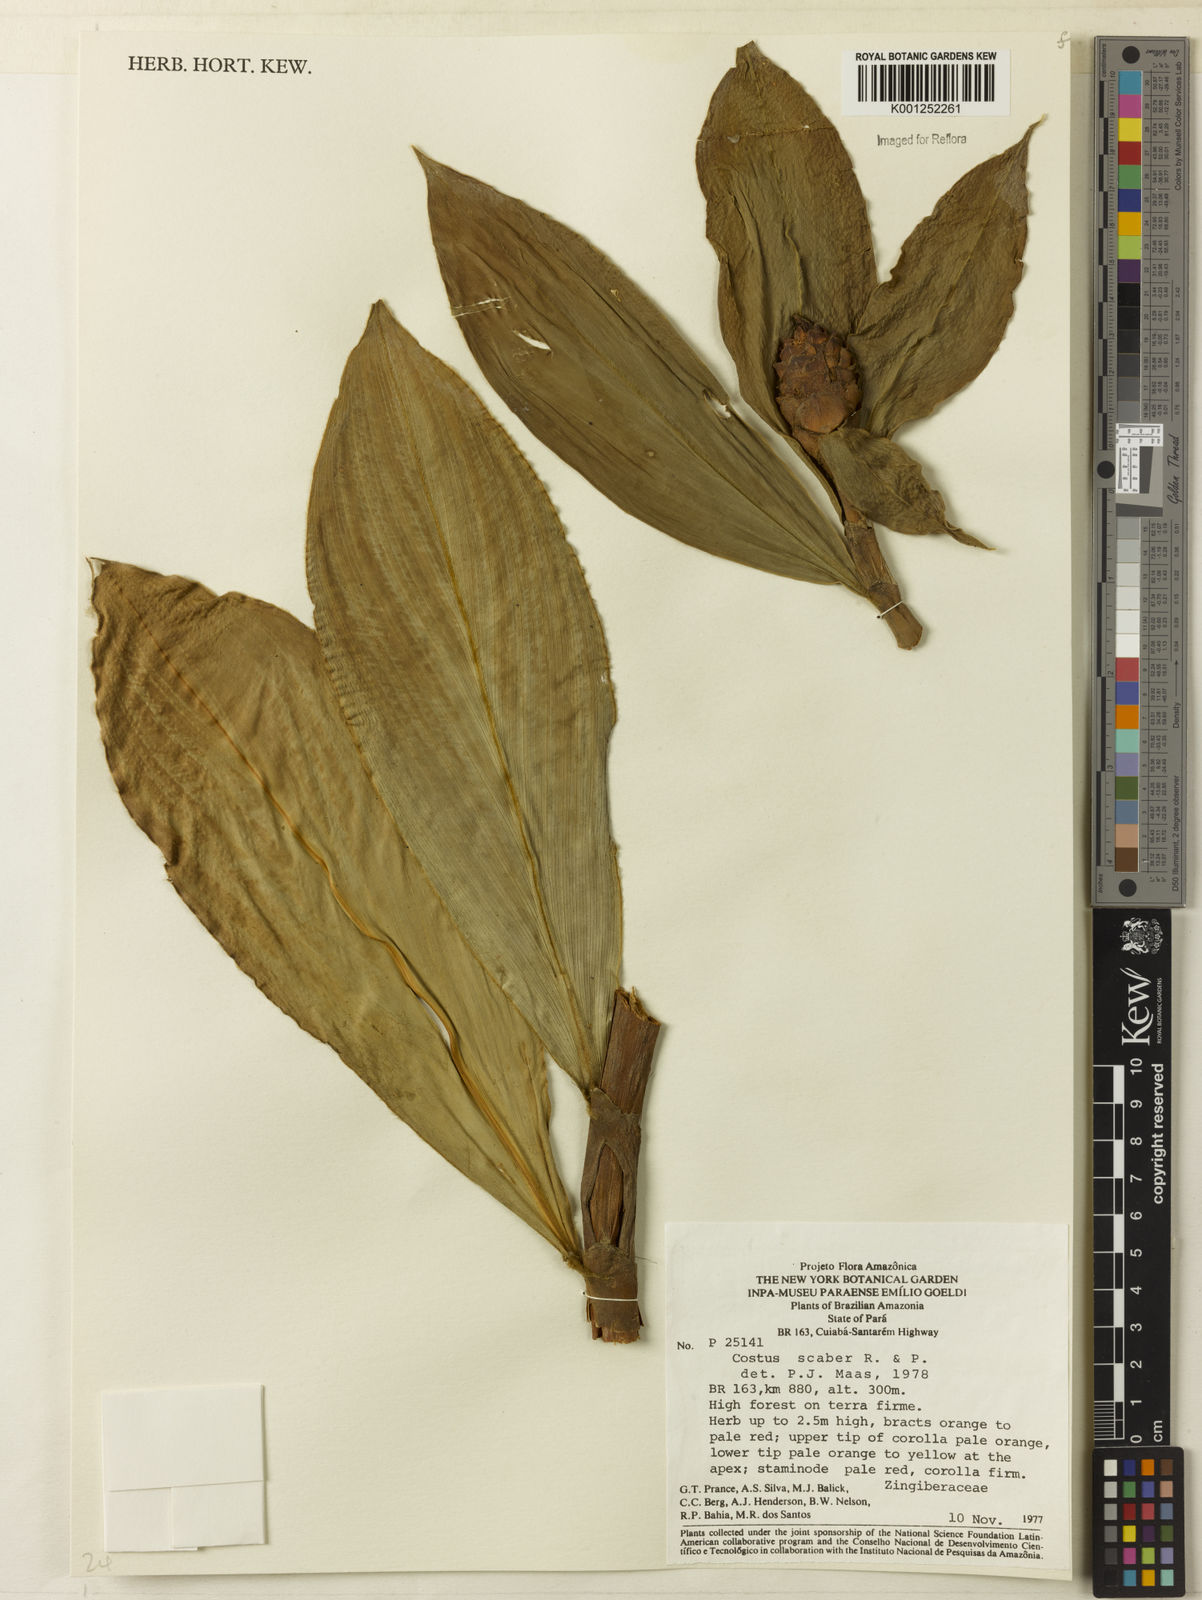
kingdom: Plantae
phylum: Tracheophyta
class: Liliopsida
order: Zingiberales
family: Costaceae
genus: Costus
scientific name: Costus scaber
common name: Spiral head ginger
